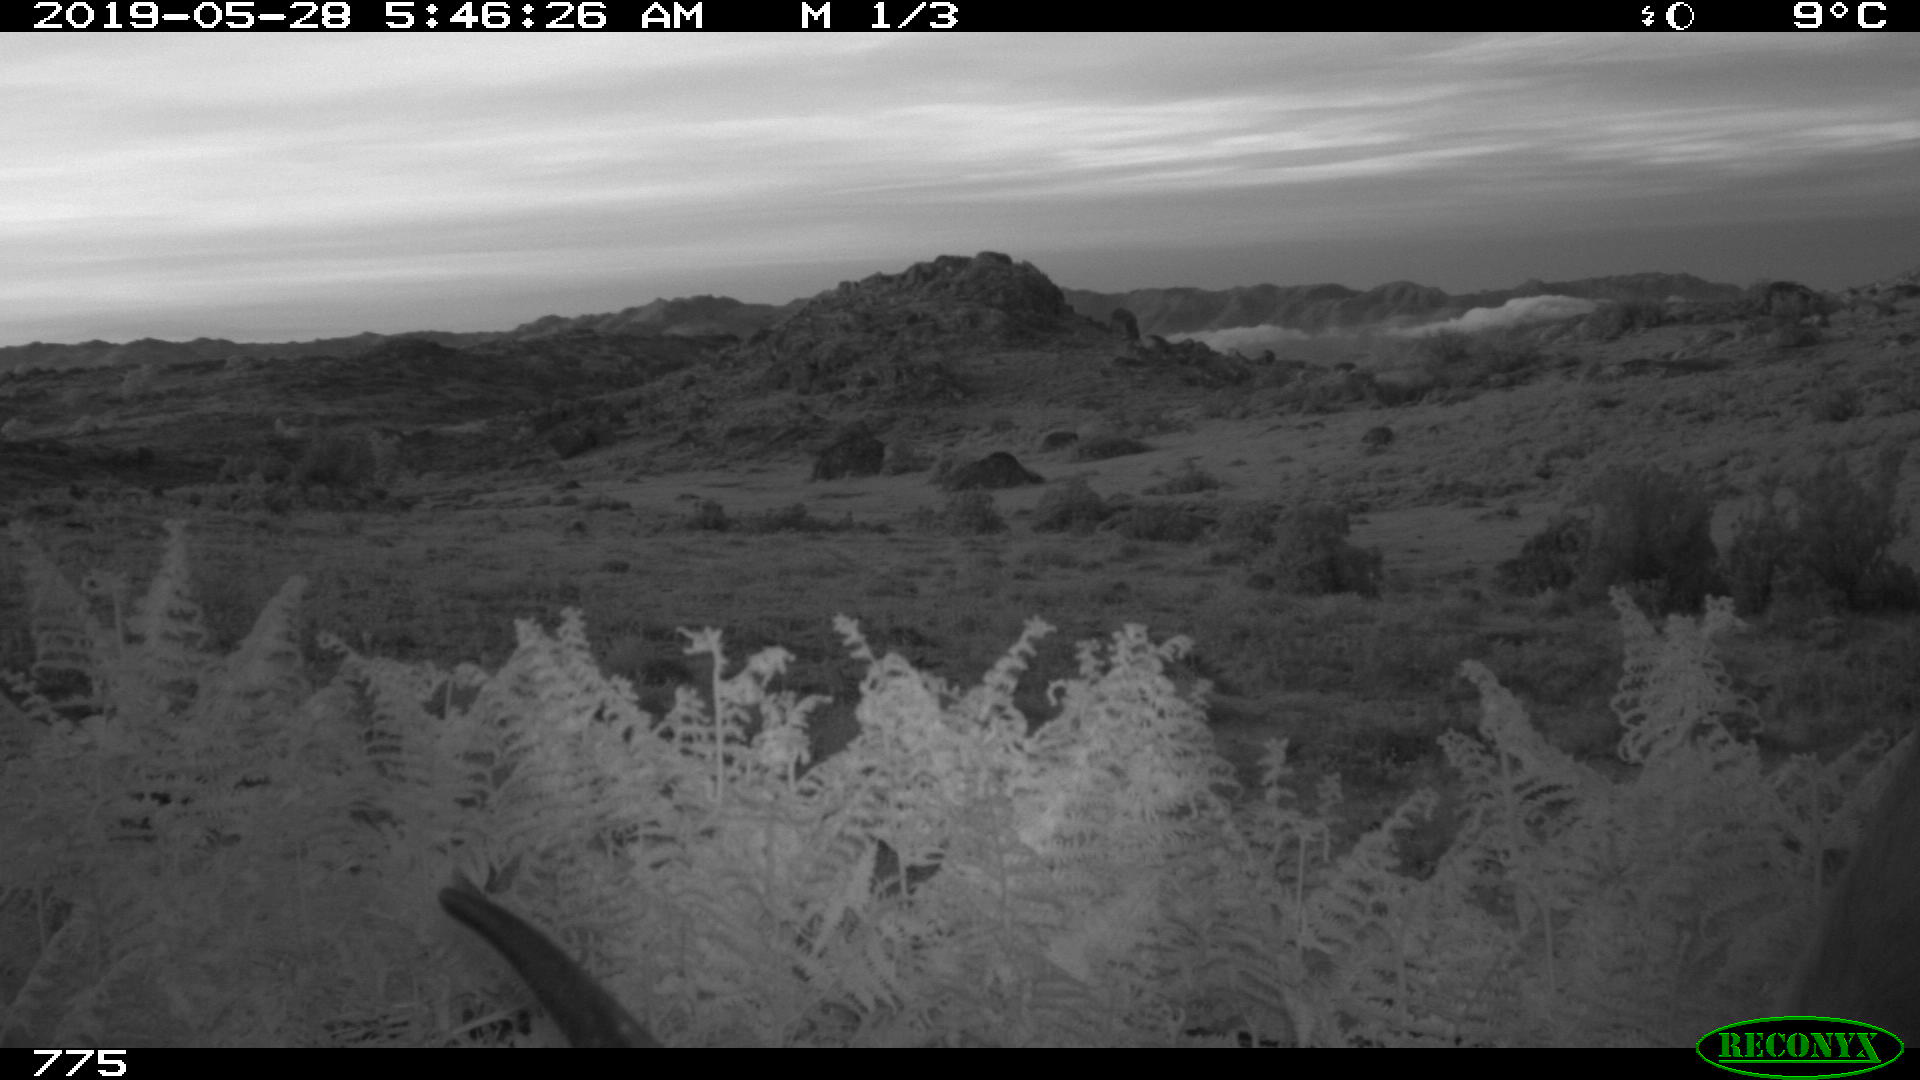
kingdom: Animalia
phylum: Chordata
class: Mammalia
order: Artiodactyla
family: Bovidae
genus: Bos
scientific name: Bos taurus
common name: Domesticated cattle
